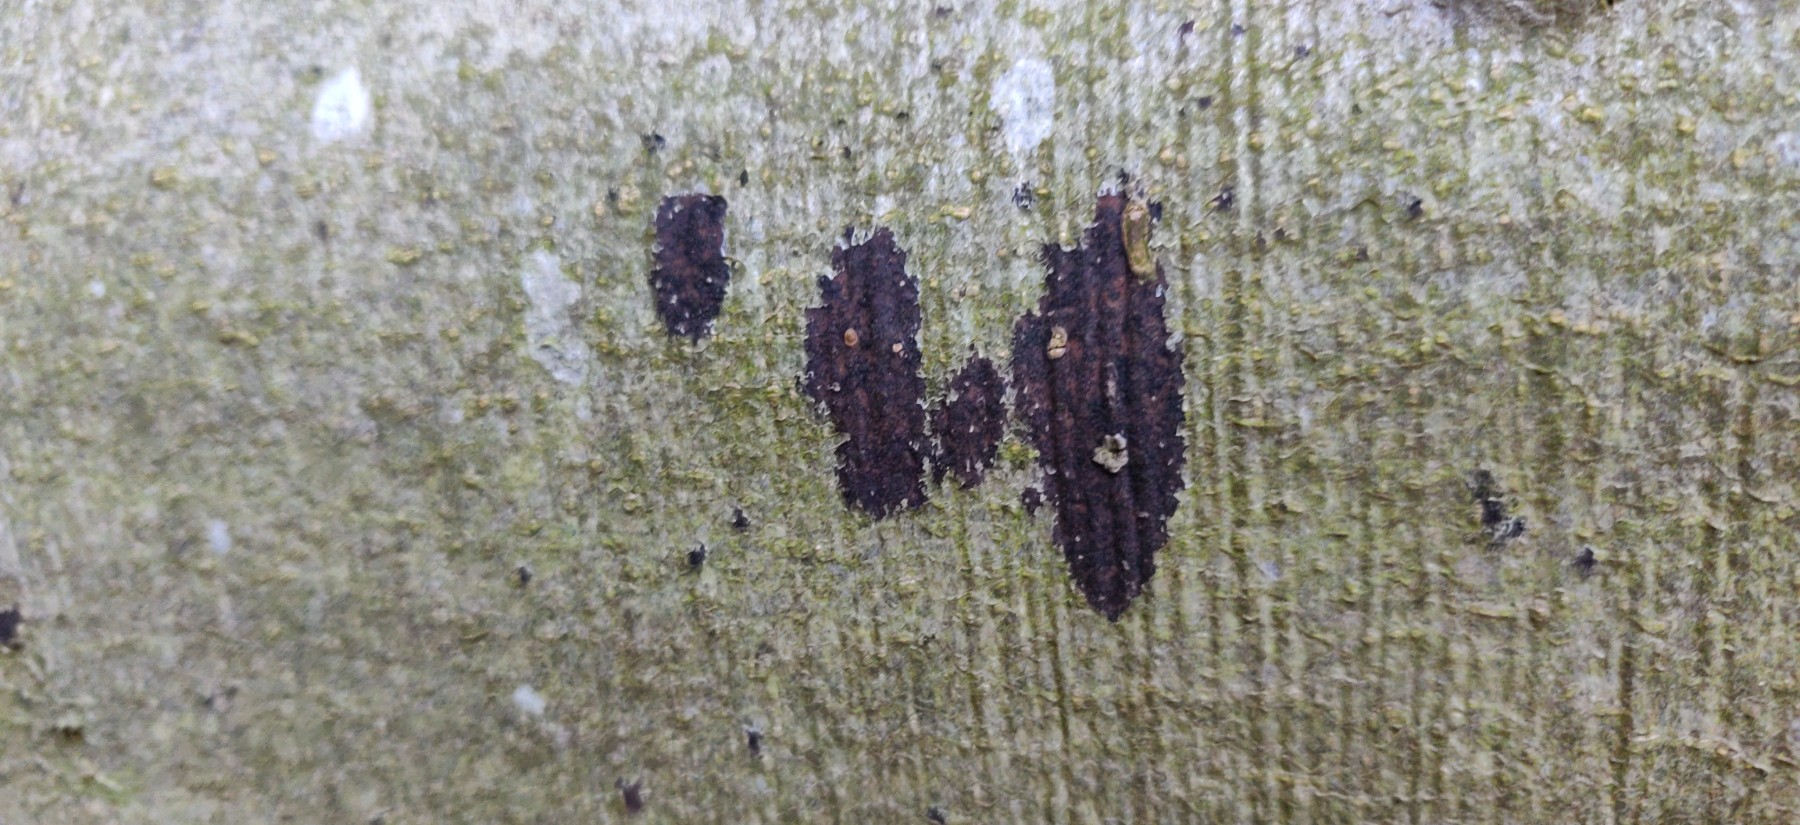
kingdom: Fungi
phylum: Ascomycota
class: Leotiomycetes
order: Rhytismatales
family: Ascodichaenaceae
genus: Ascodichaena
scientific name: Ascodichaena rugosa
